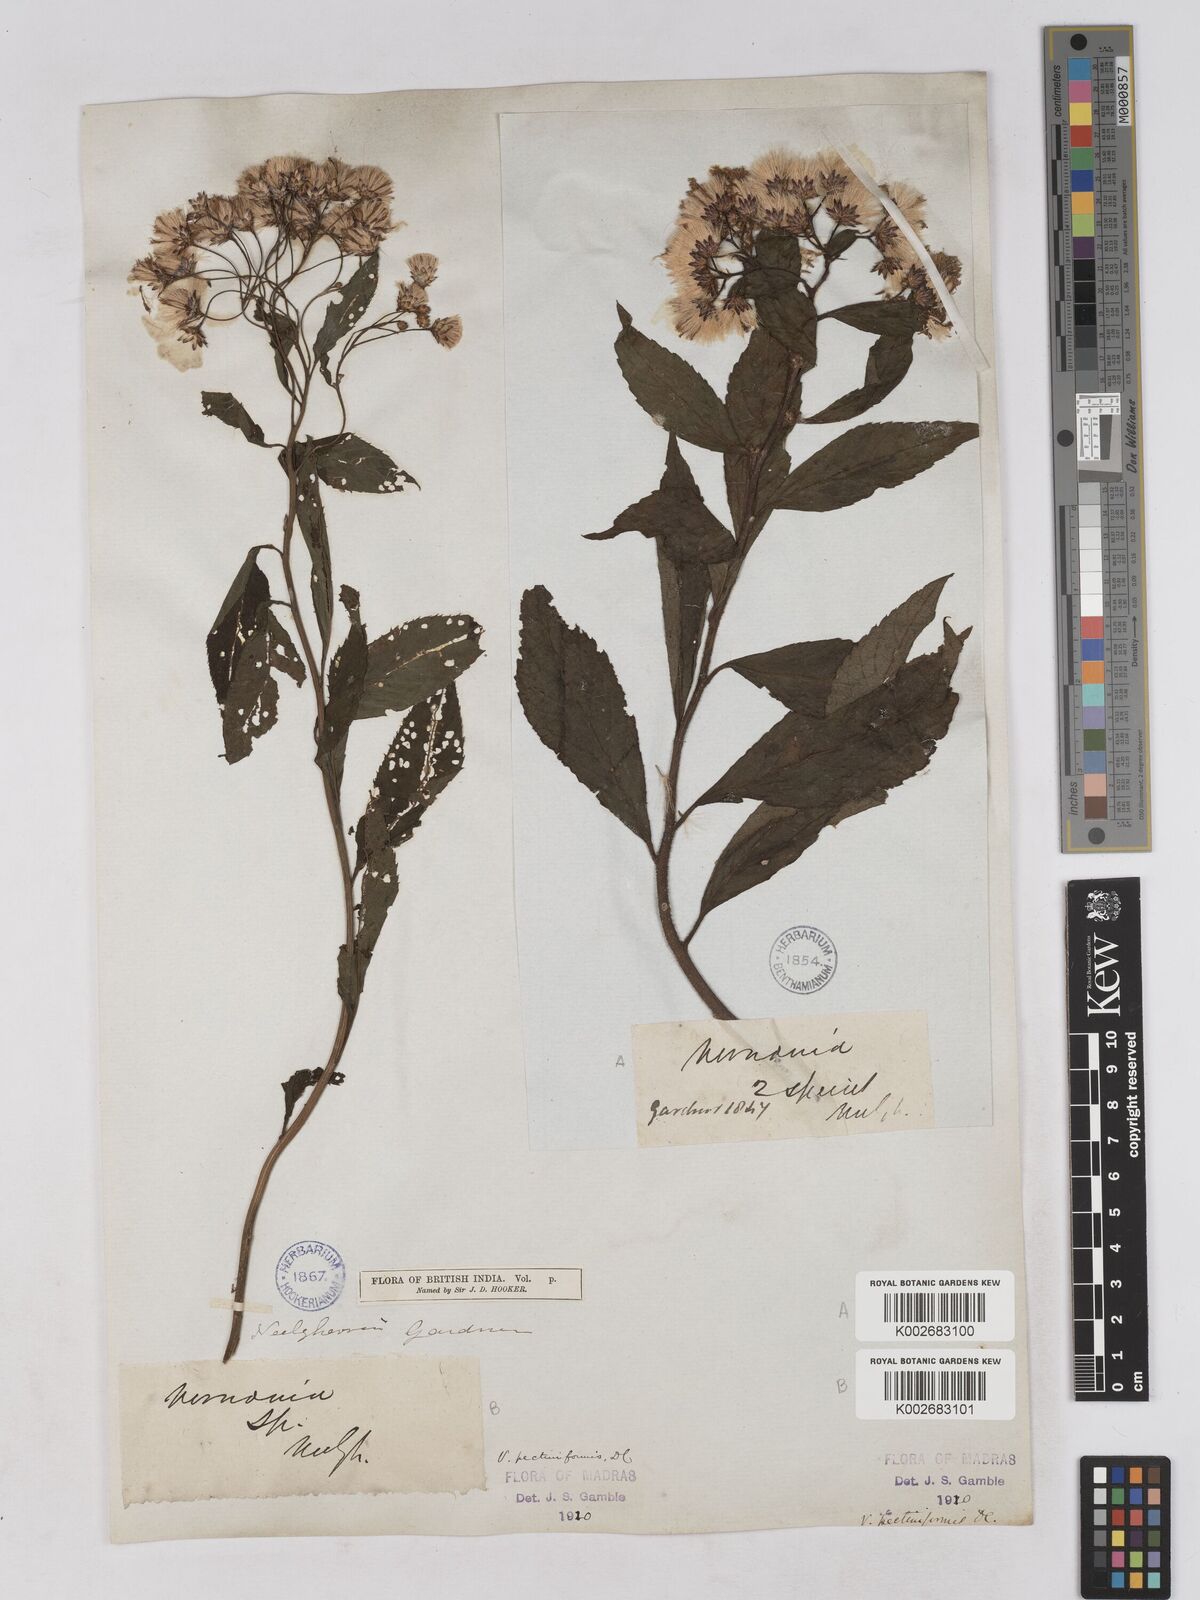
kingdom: Plantae
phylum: Tracheophyta
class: Magnoliopsida
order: Asterales
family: Asteraceae
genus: Gymnanthemum
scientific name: Gymnanthemum pectiniforme
